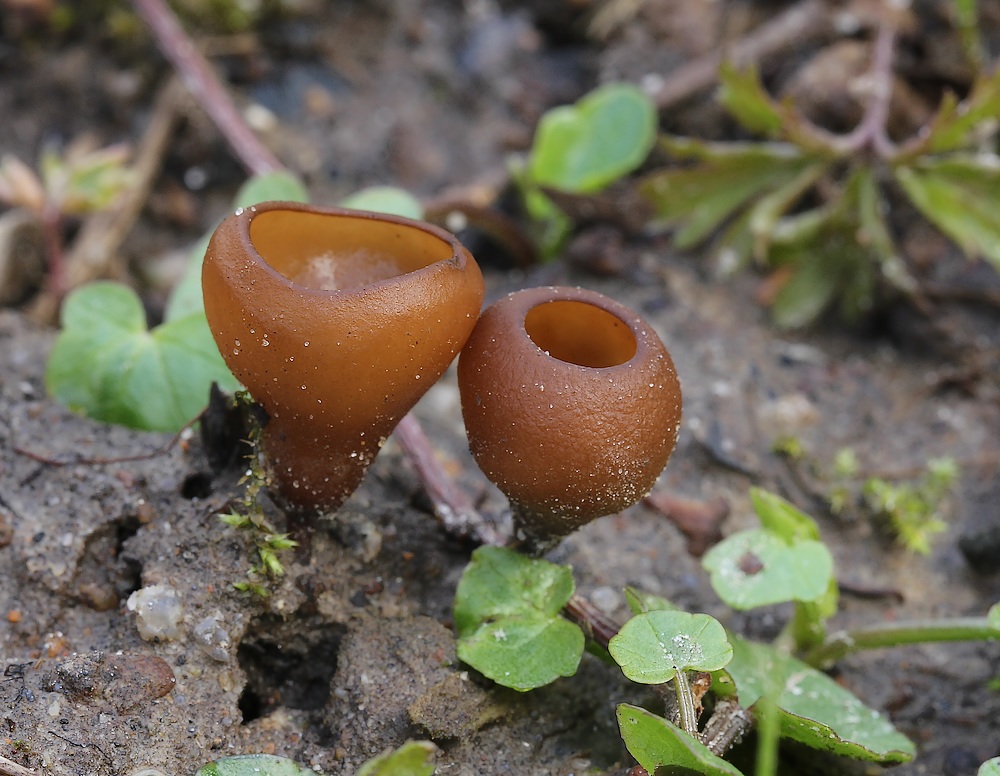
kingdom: Fungi
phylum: Ascomycota
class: Leotiomycetes
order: Helotiales
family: Sclerotiniaceae
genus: Dumontinia
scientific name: Dumontinia tuberosa
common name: anemone-knoldskive
